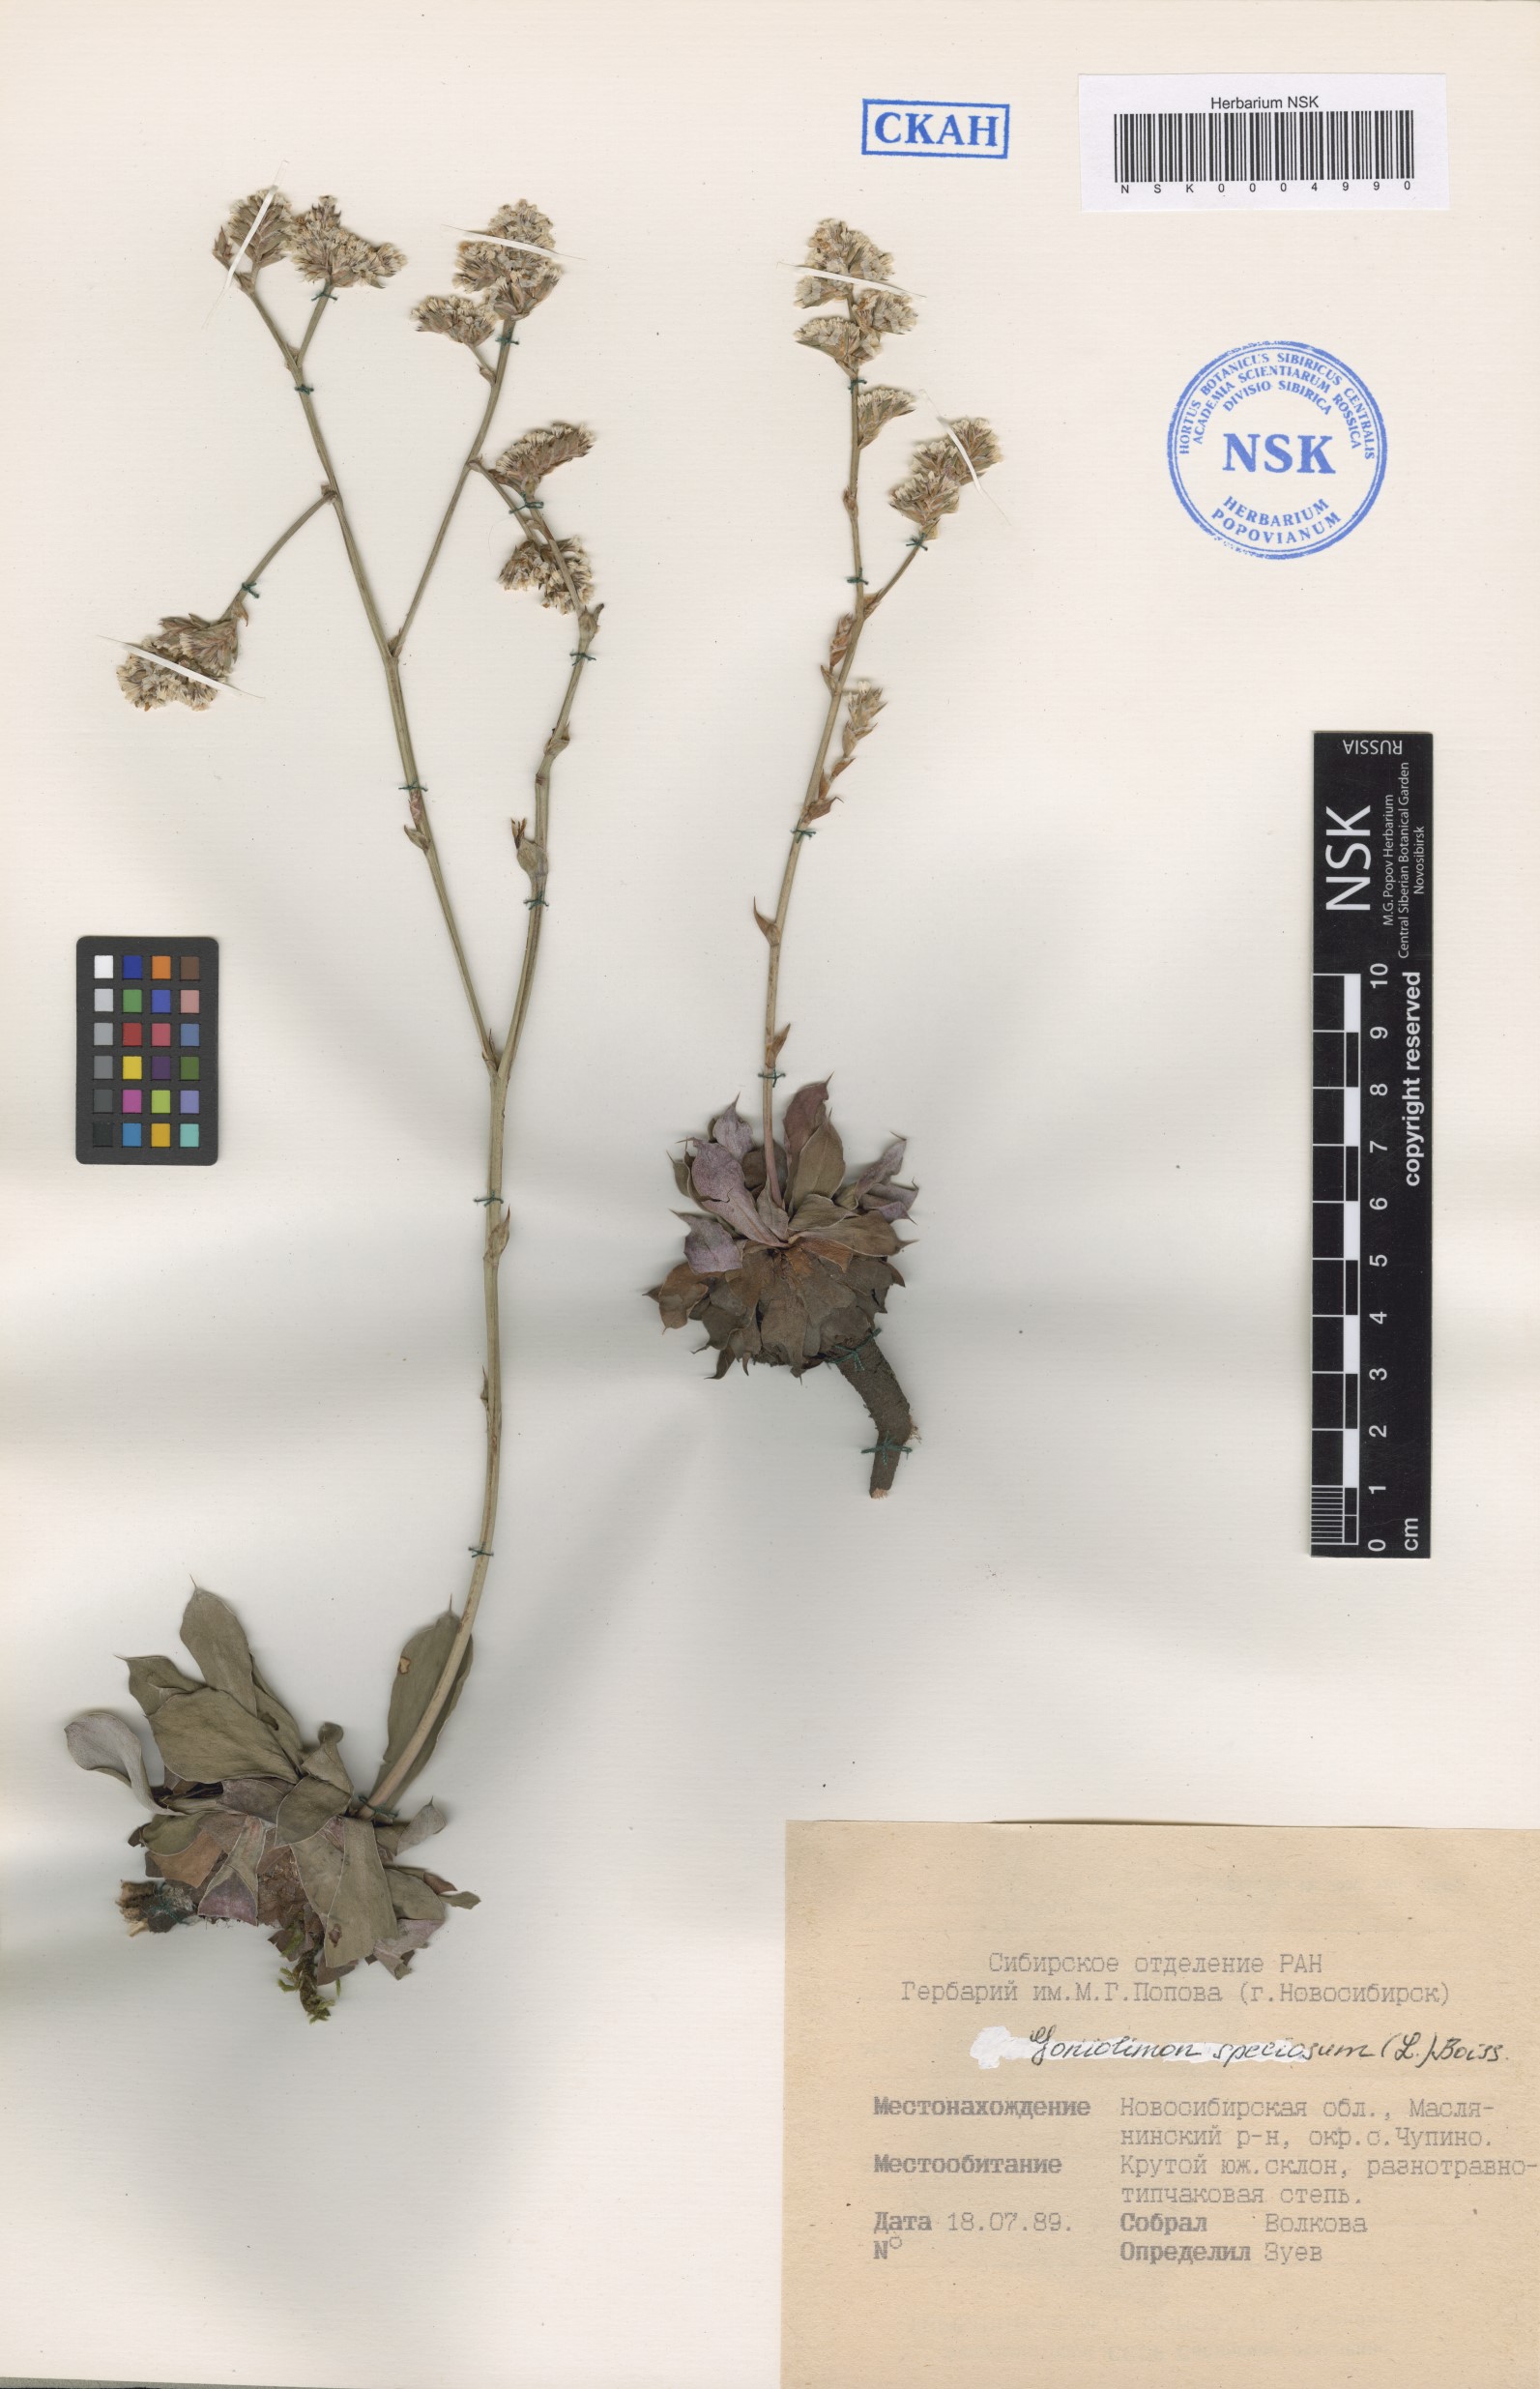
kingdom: Plantae
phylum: Tracheophyta
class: Magnoliopsida
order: Caryophyllales
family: Plumbaginaceae
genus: Goniolimon
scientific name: Goniolimon speciosum
